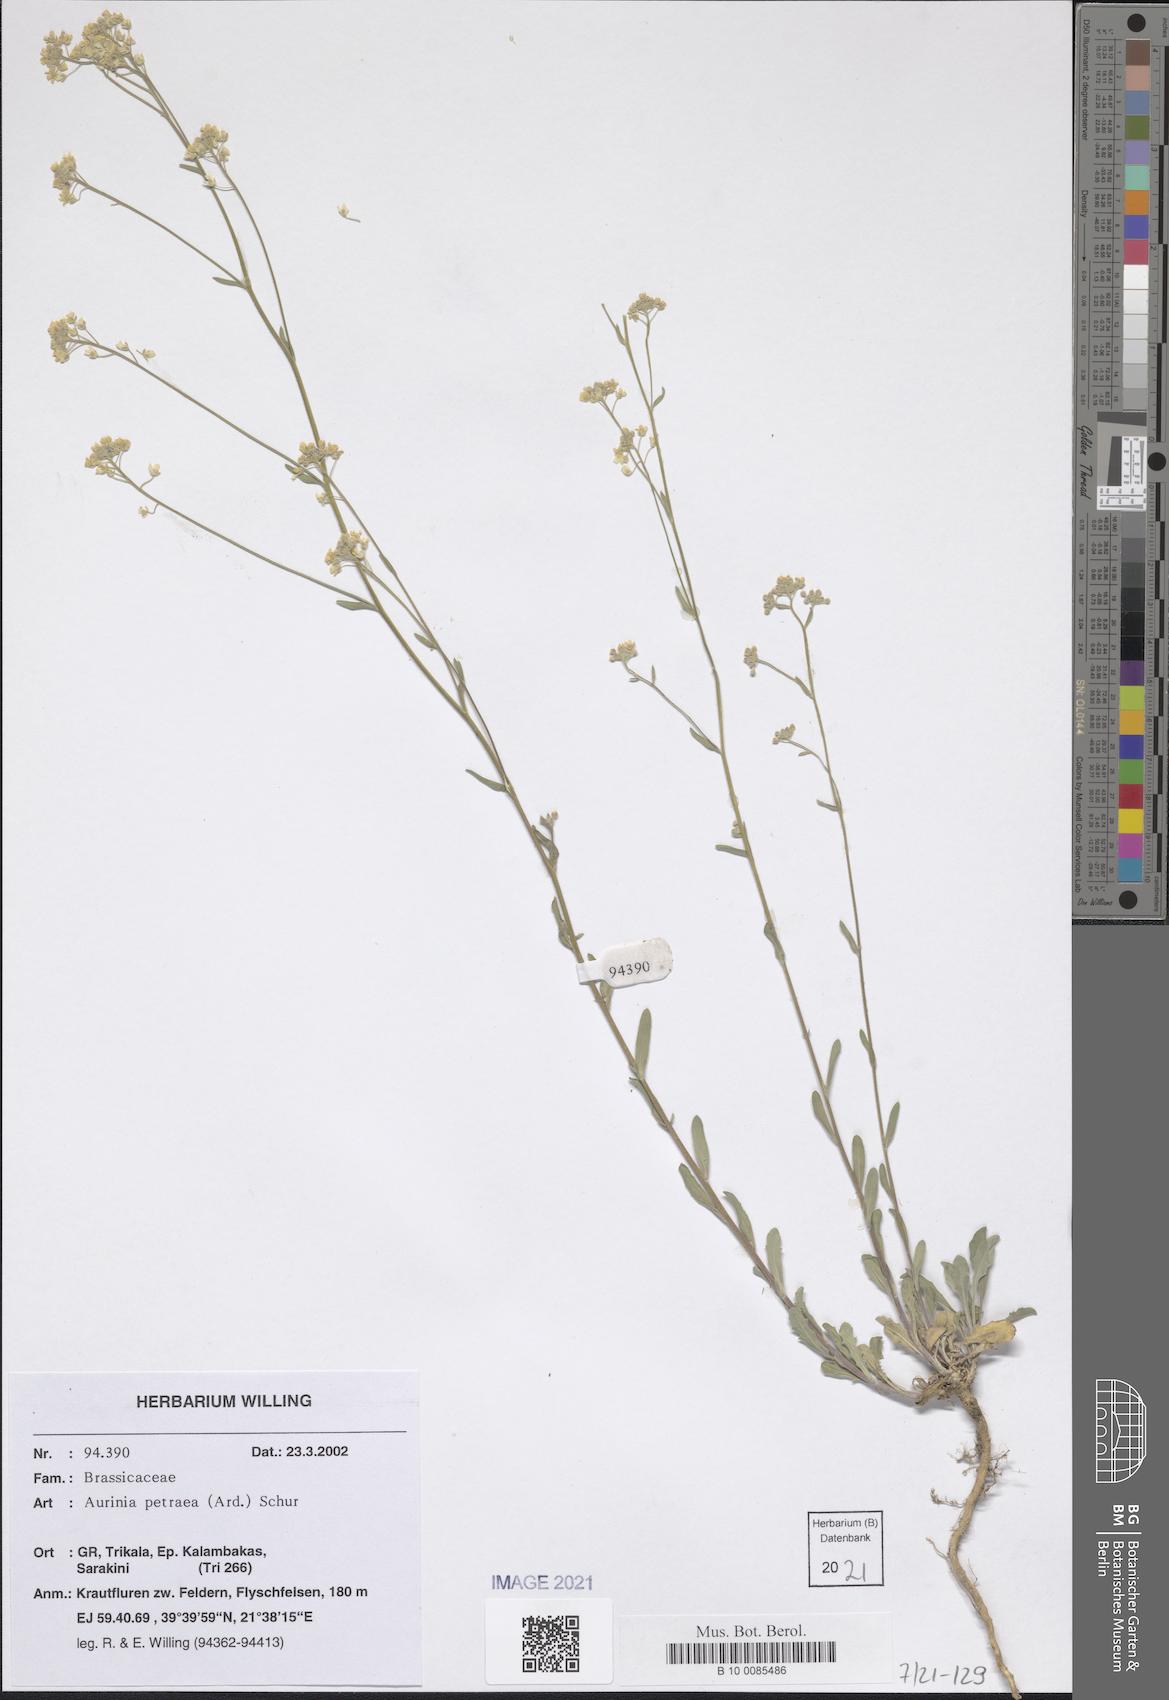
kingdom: Plantae
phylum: Tracheophyta
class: Magnoliopsida
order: Brassicales
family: Brassicaceae
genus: Aurinia
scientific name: Aurinia petraea
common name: Goldentuft
